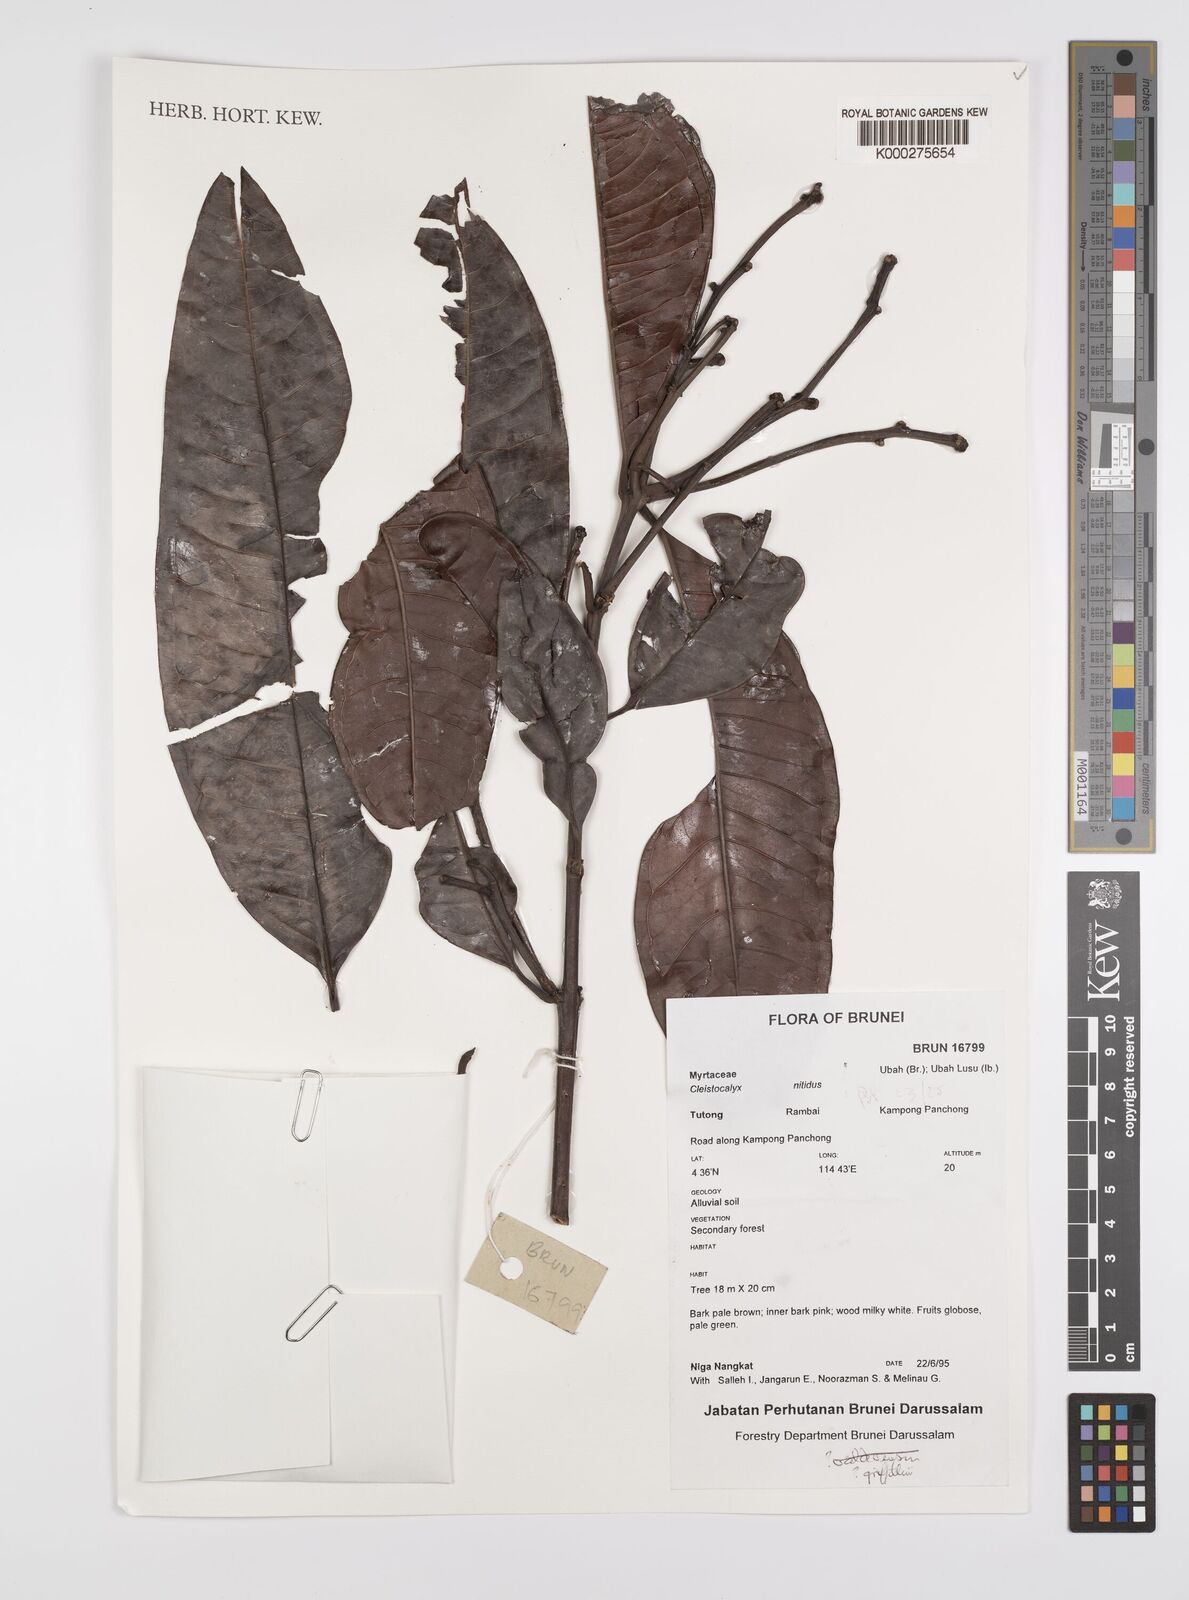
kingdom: Plantae
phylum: Tracheophyta
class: Magnoliopsida
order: Myrtales
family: Myrtaceae
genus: Syzygium
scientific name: Syzygium nervosum
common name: Daly river satinash
